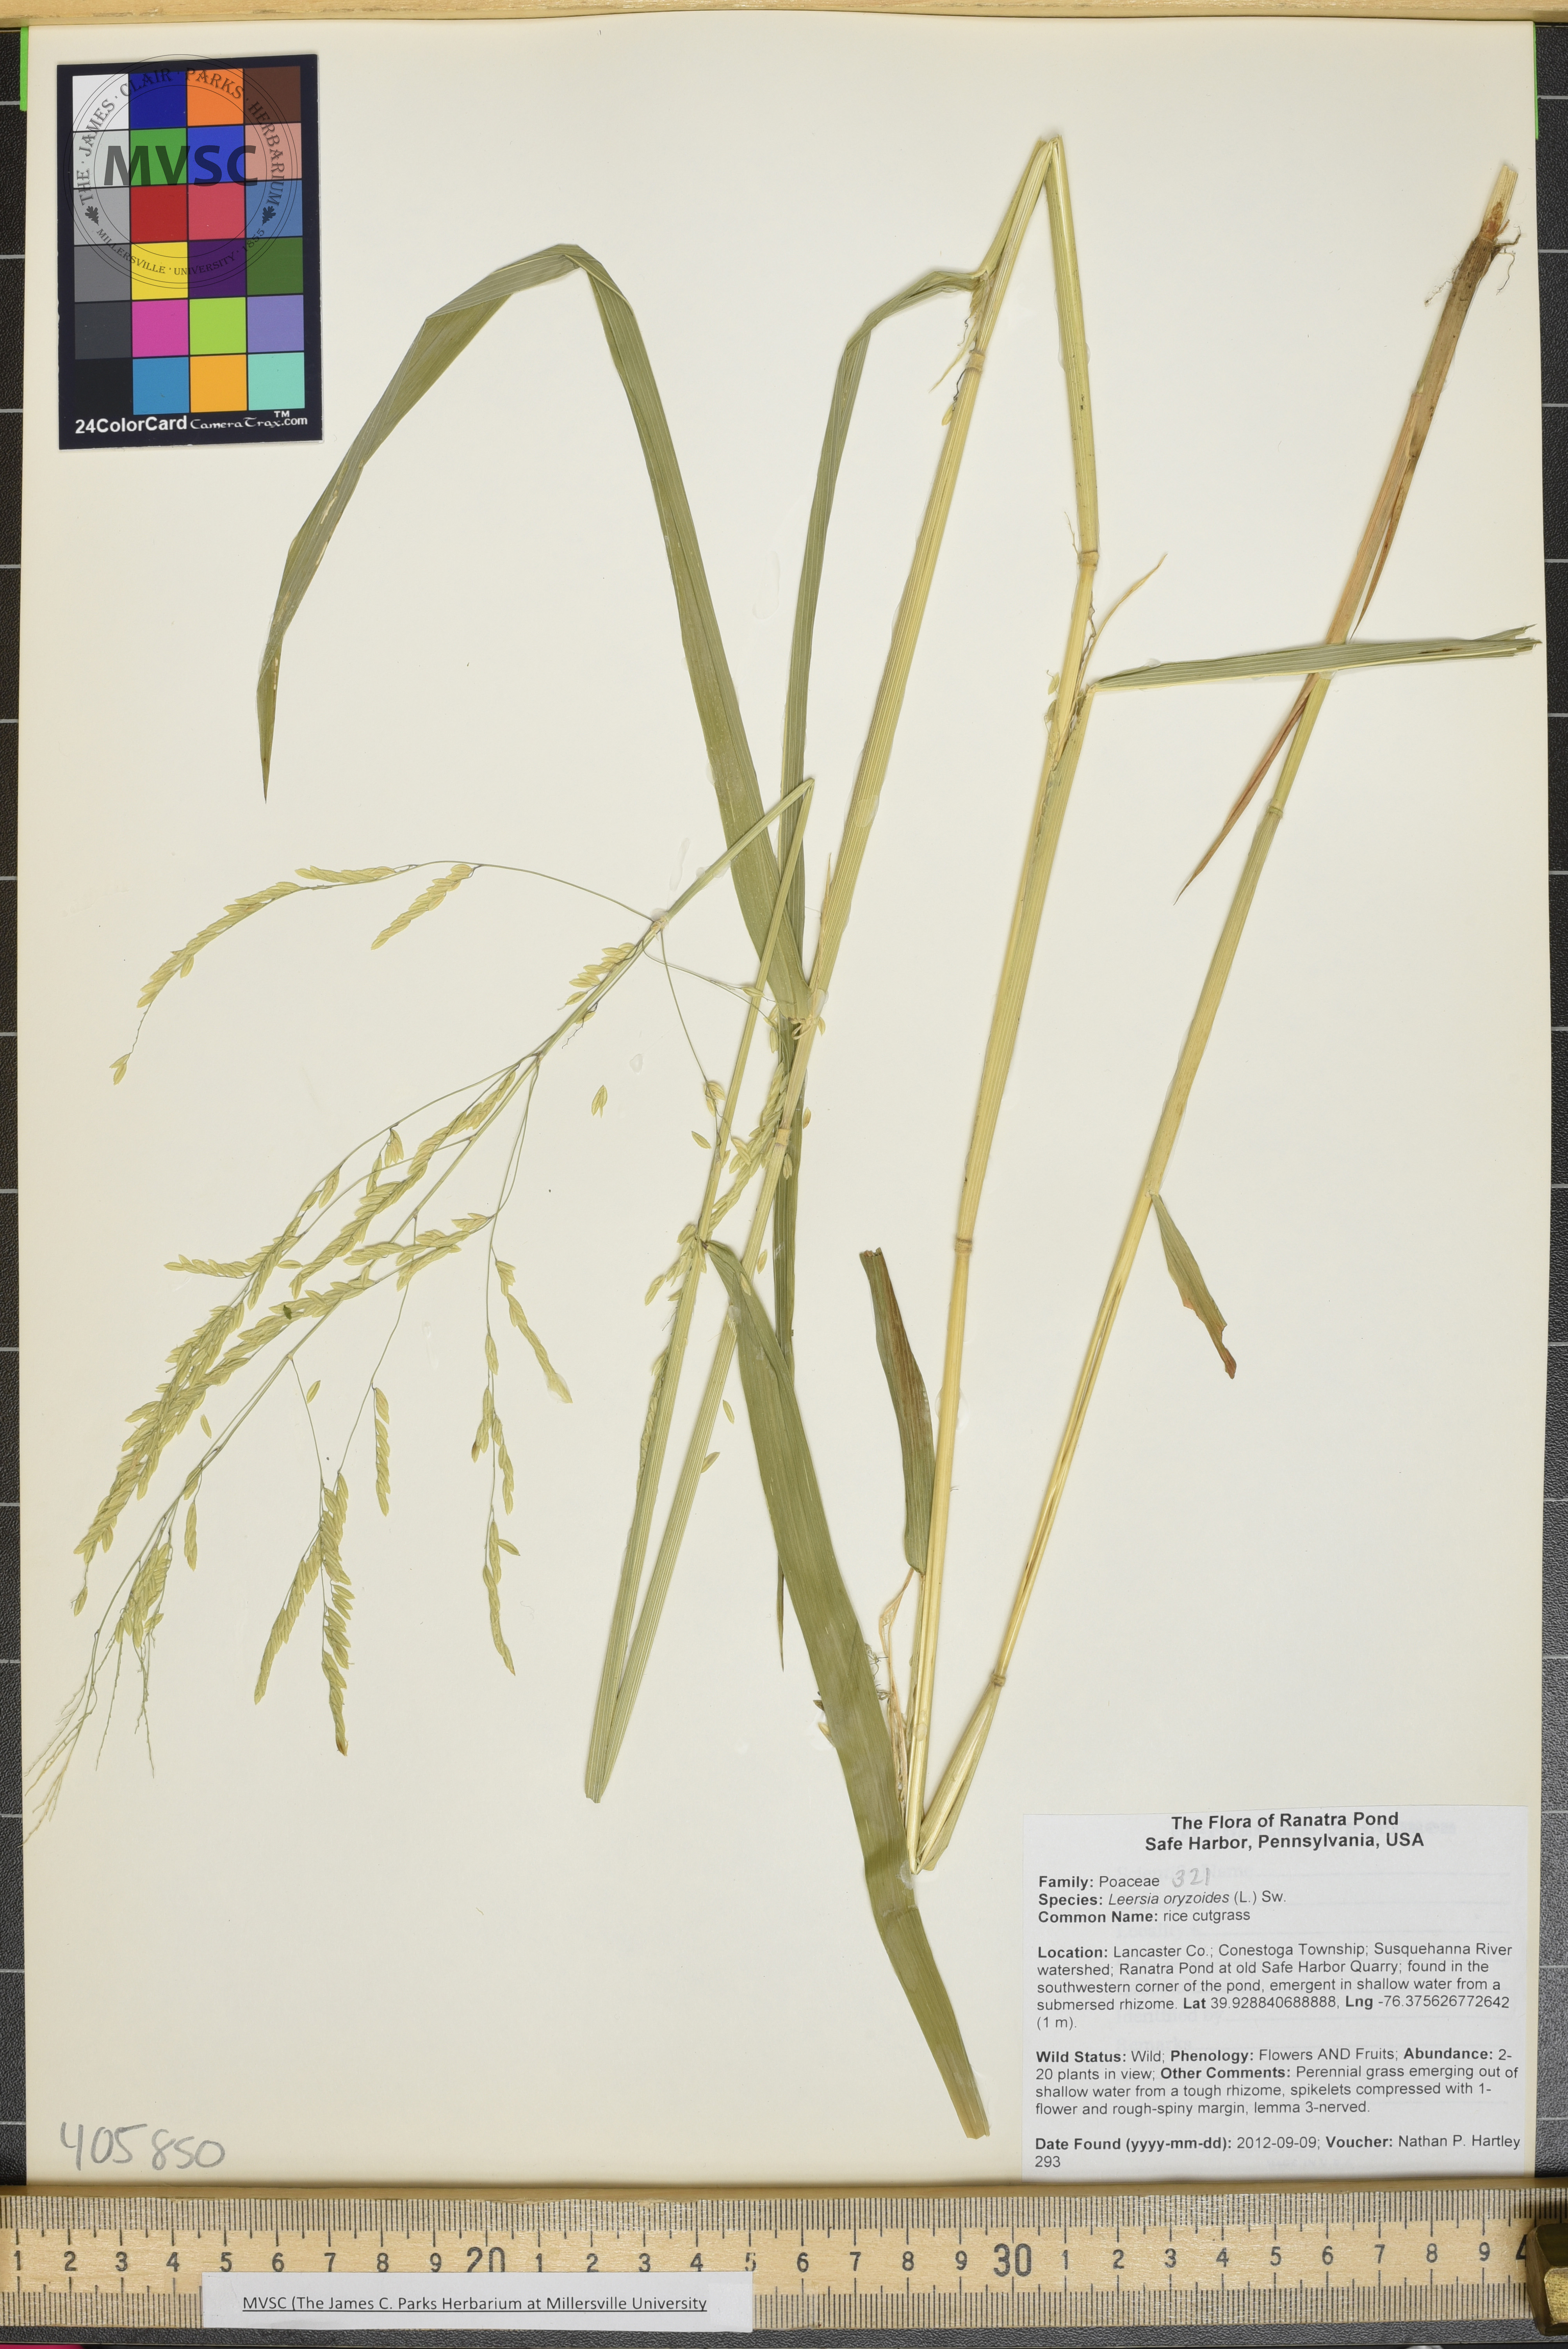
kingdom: Plantae
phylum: Tracheophyta
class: Liliopsida
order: Poales
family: Poaceae
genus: Leersia
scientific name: Leersia oryzoides
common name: rice cutgrass
